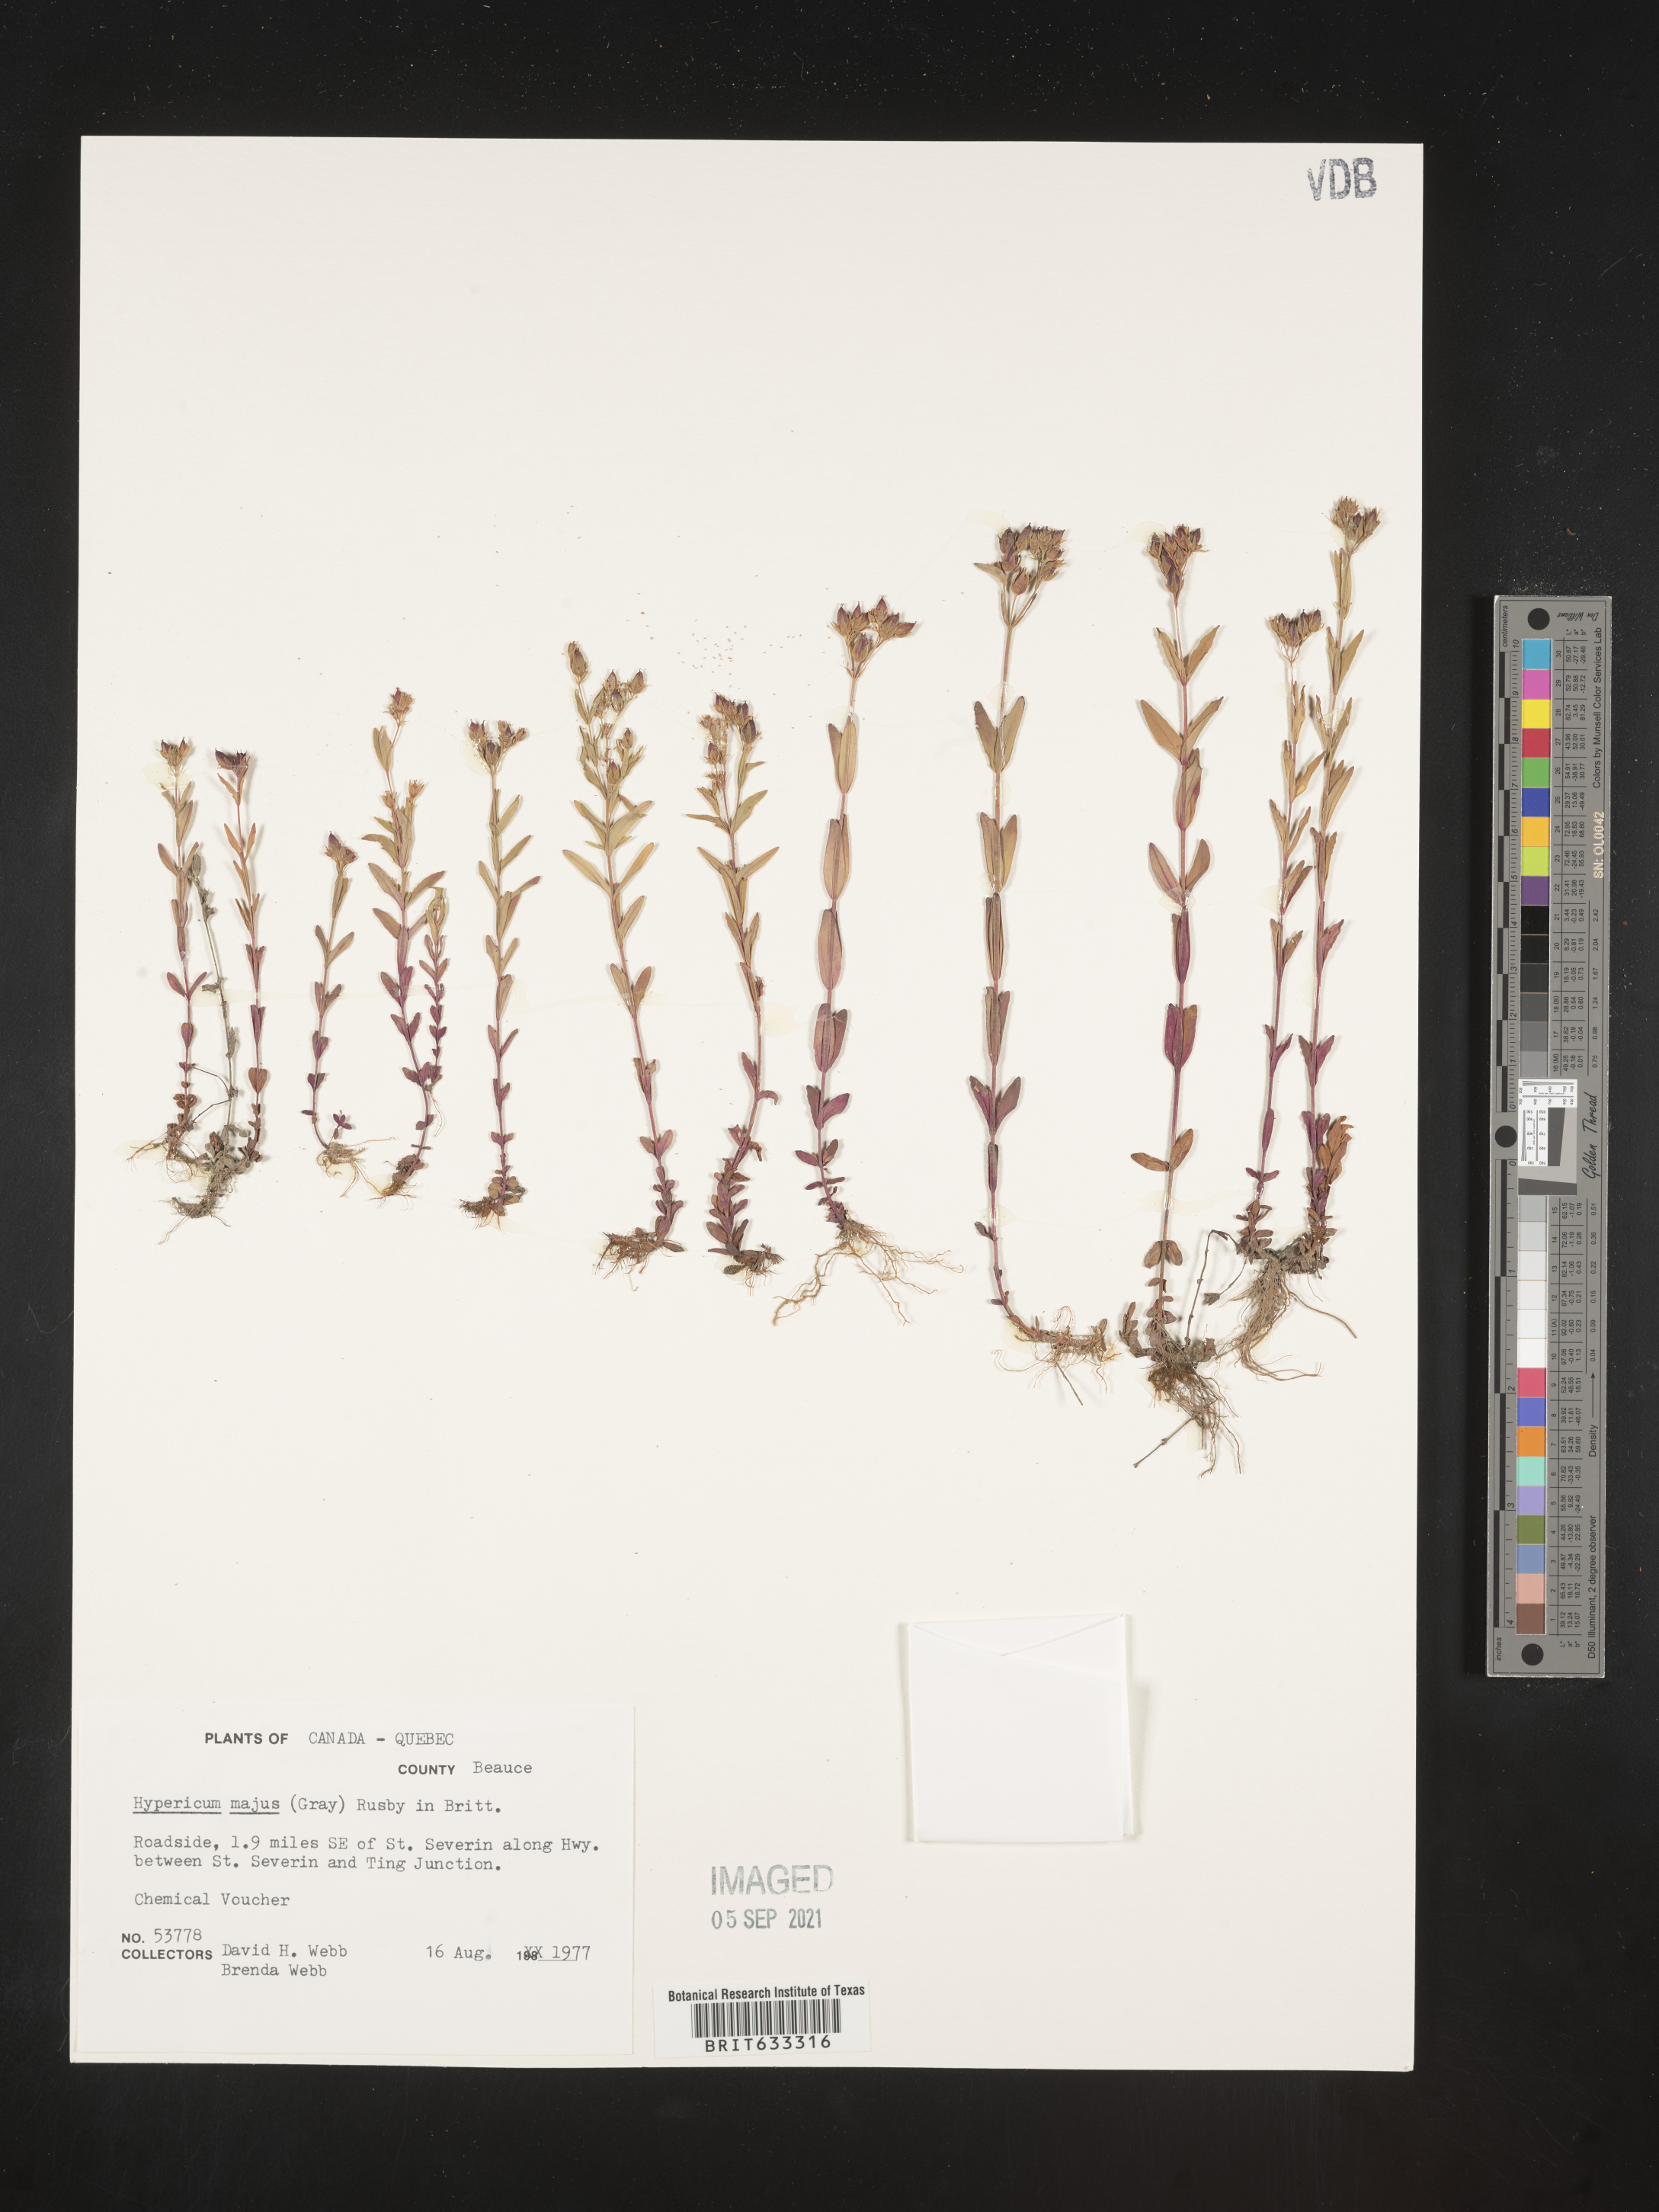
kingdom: Plantae
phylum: Tracheophyta
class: Magnoliopsida
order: Malpighiales
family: Hypericaceae
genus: Hypericum
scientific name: Hypericum
